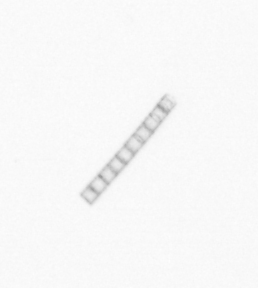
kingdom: Chromista
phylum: Ochrophyta
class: Bacillariophyceae
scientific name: Bacillariophyceae
